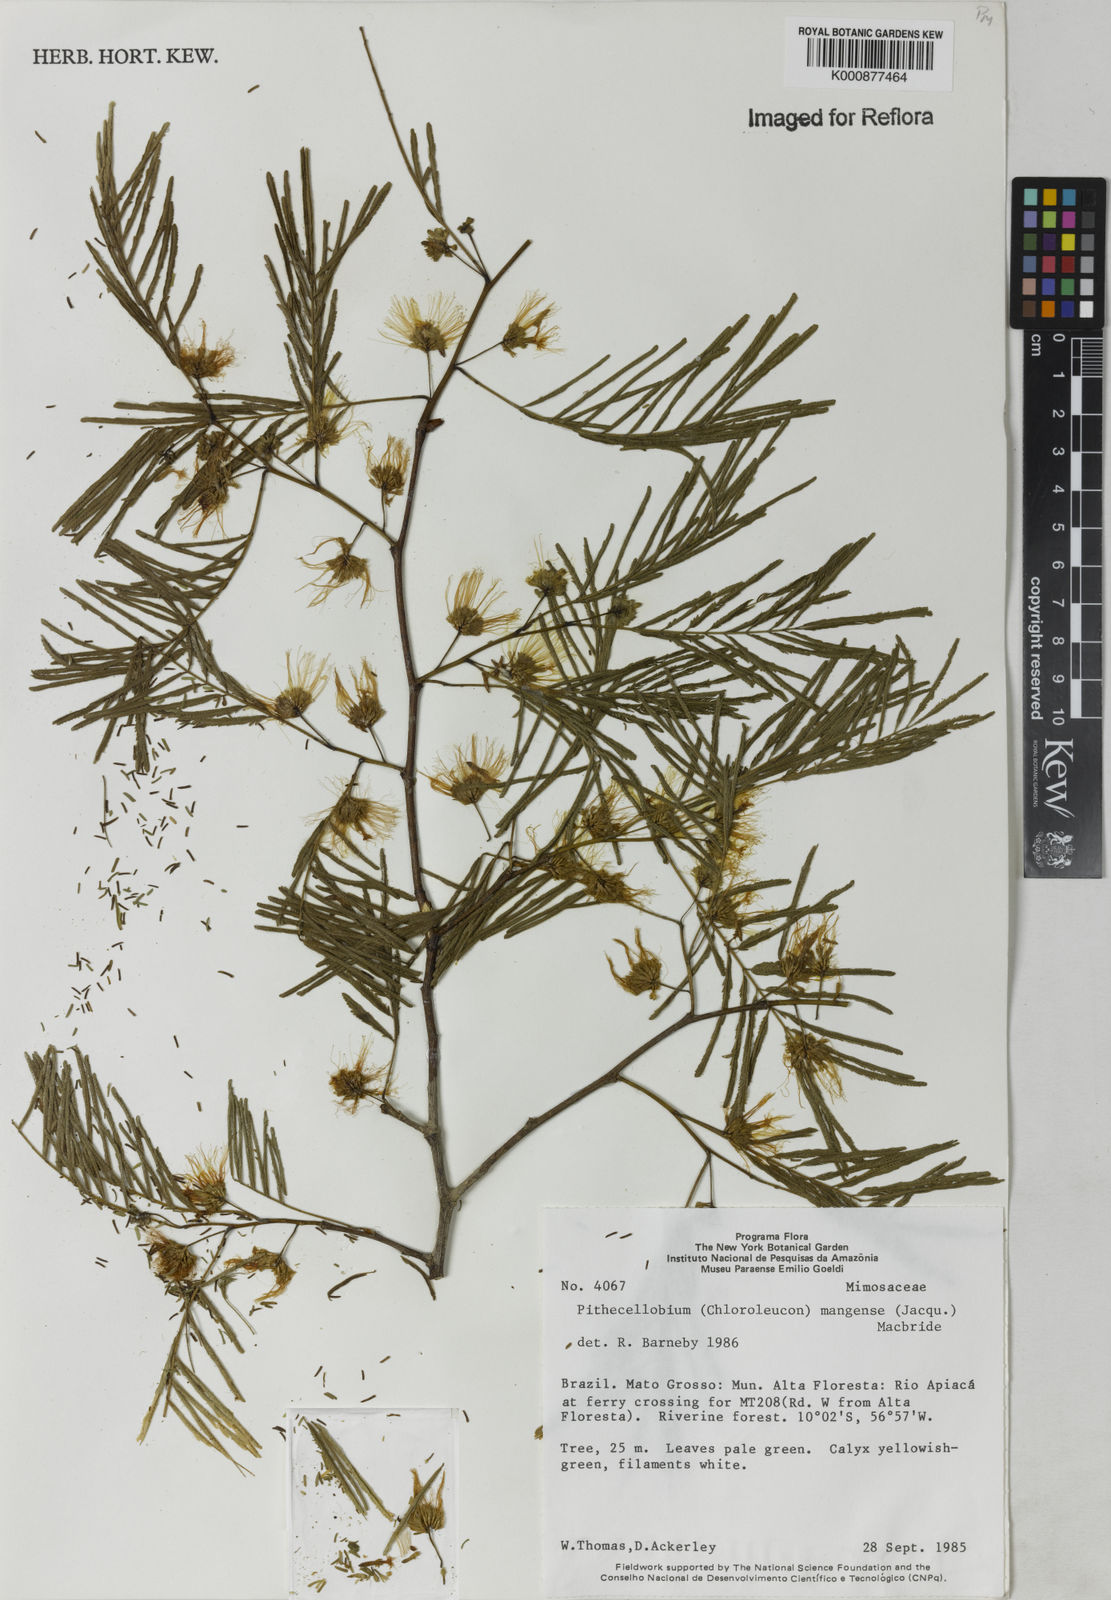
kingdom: Plantae
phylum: Tracheophyta
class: Magnoliopsida
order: Fabales
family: Fabaceae
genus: Chloroleucon
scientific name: Chloroleucon
